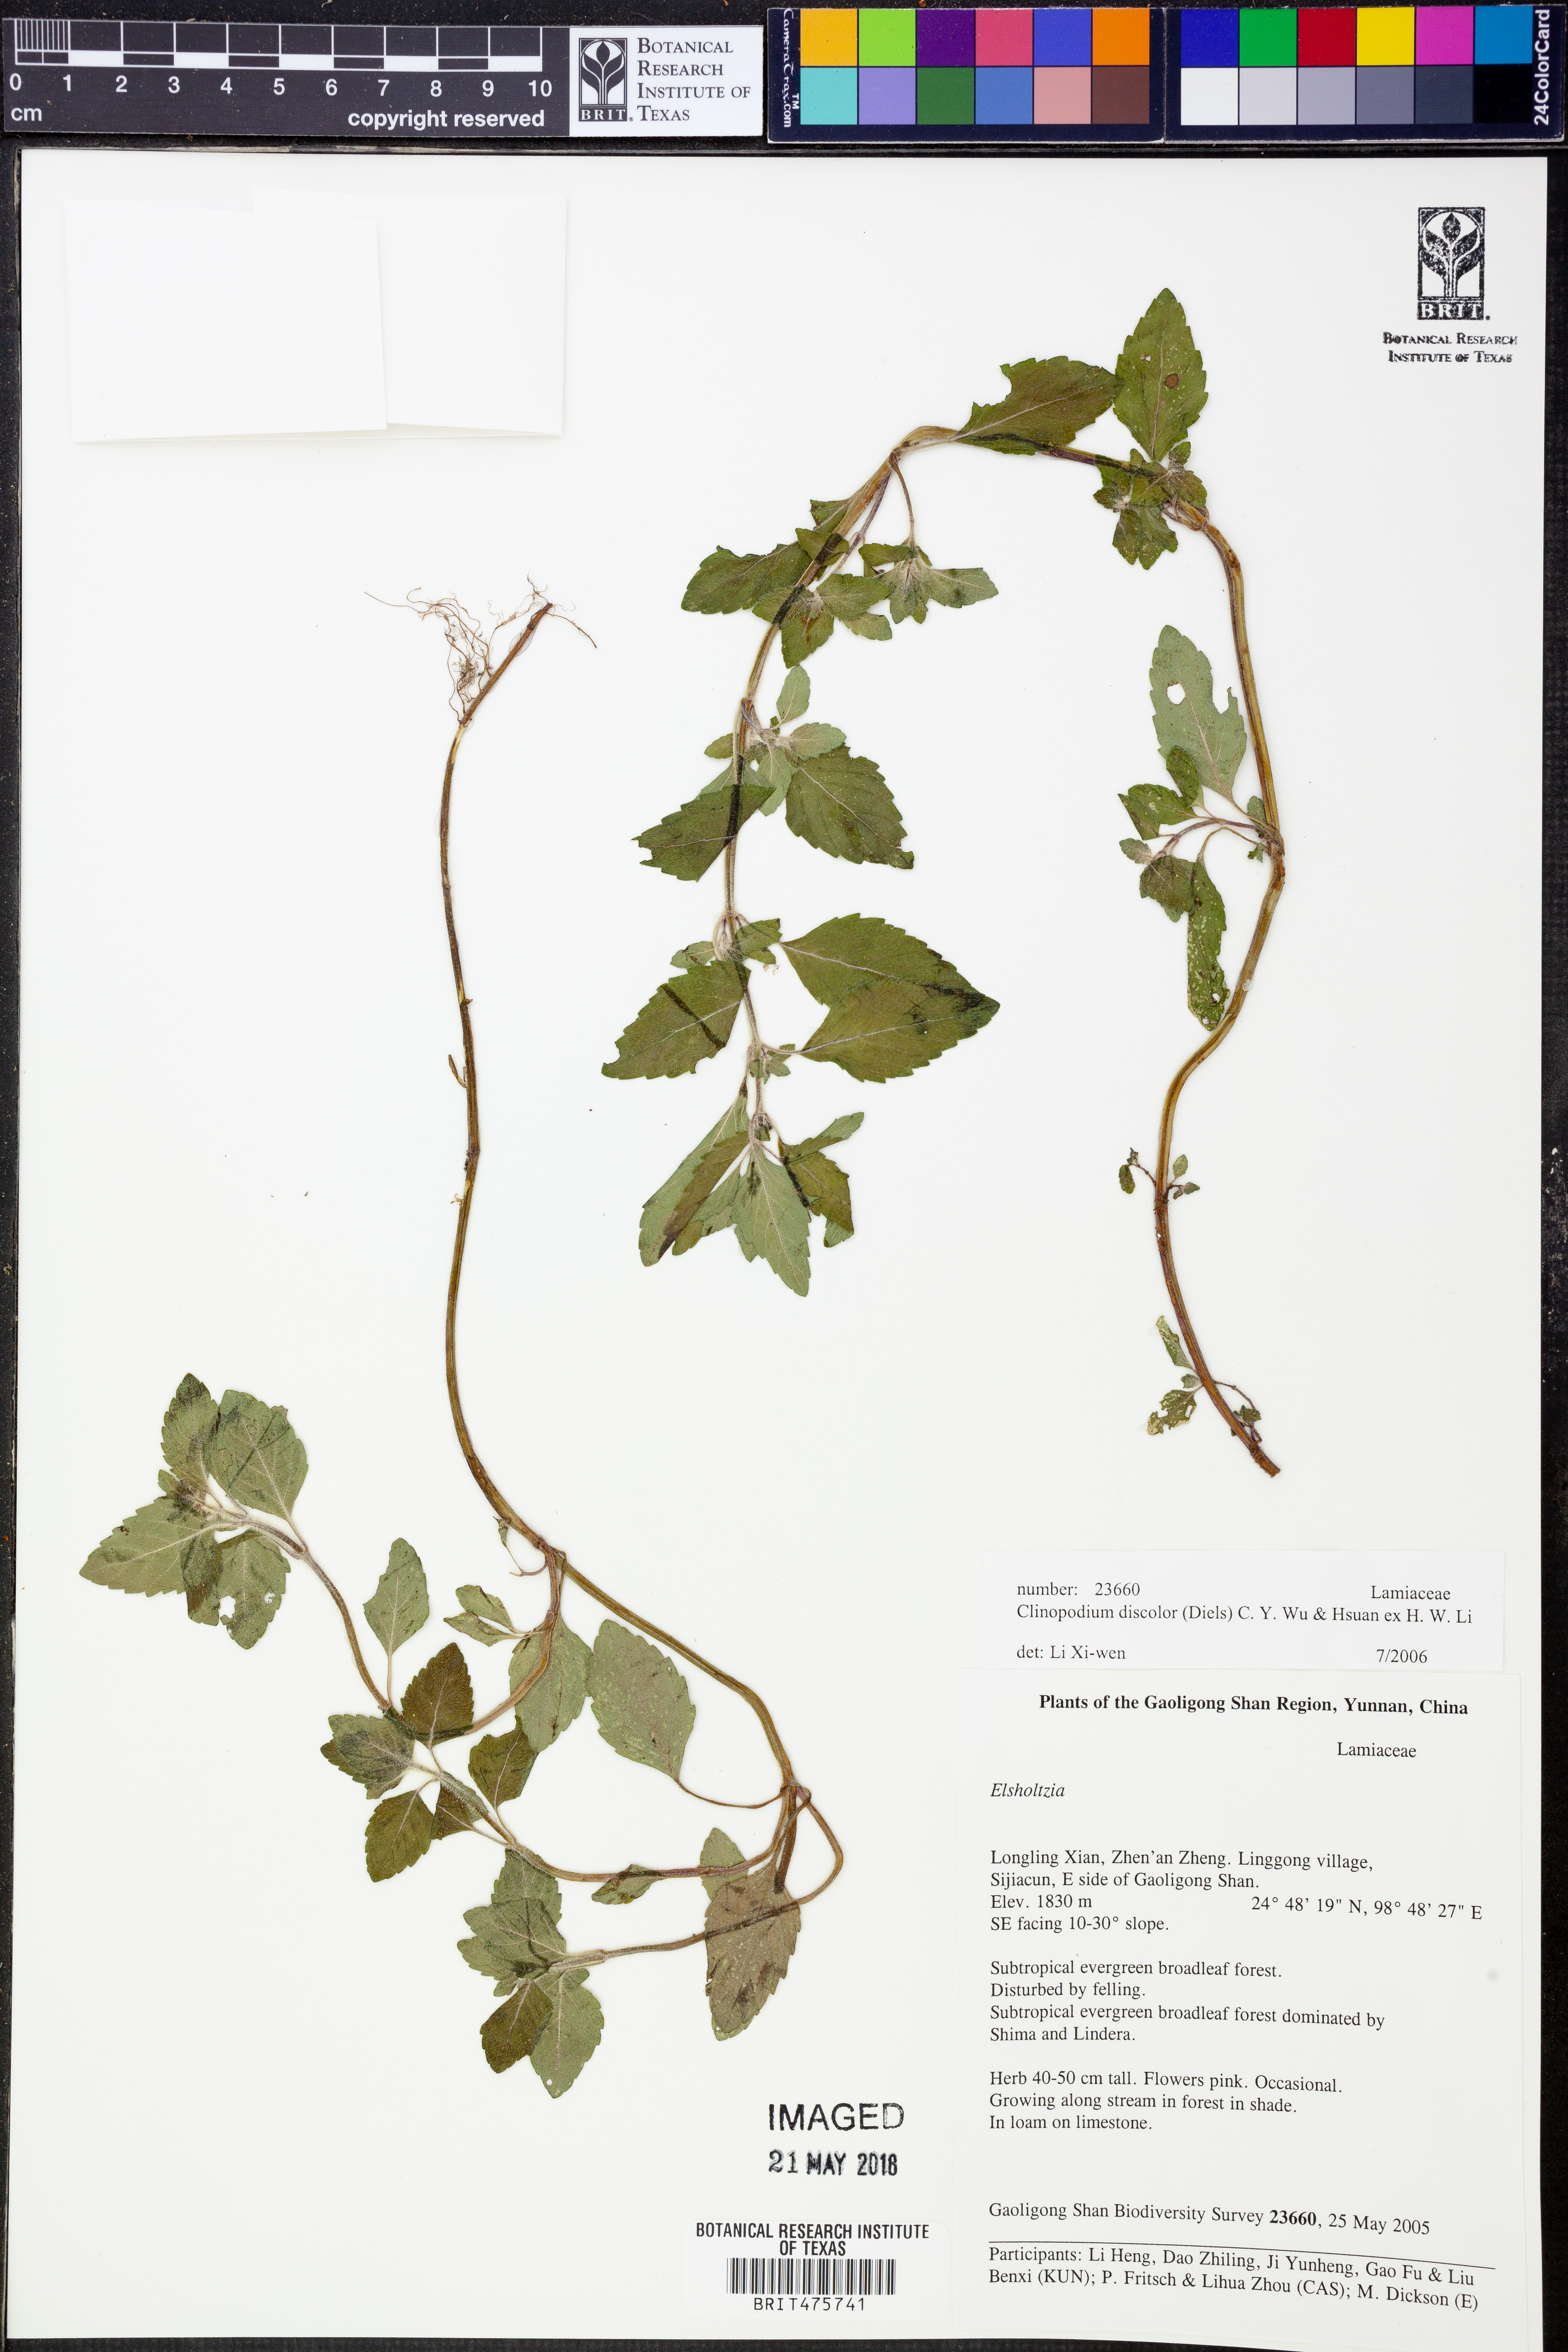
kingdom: Plantae
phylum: Tracheophyta
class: Magnoliopsida
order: Lamiales
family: Lamiaceae
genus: Clinopodium
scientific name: Clinopodium discolor
